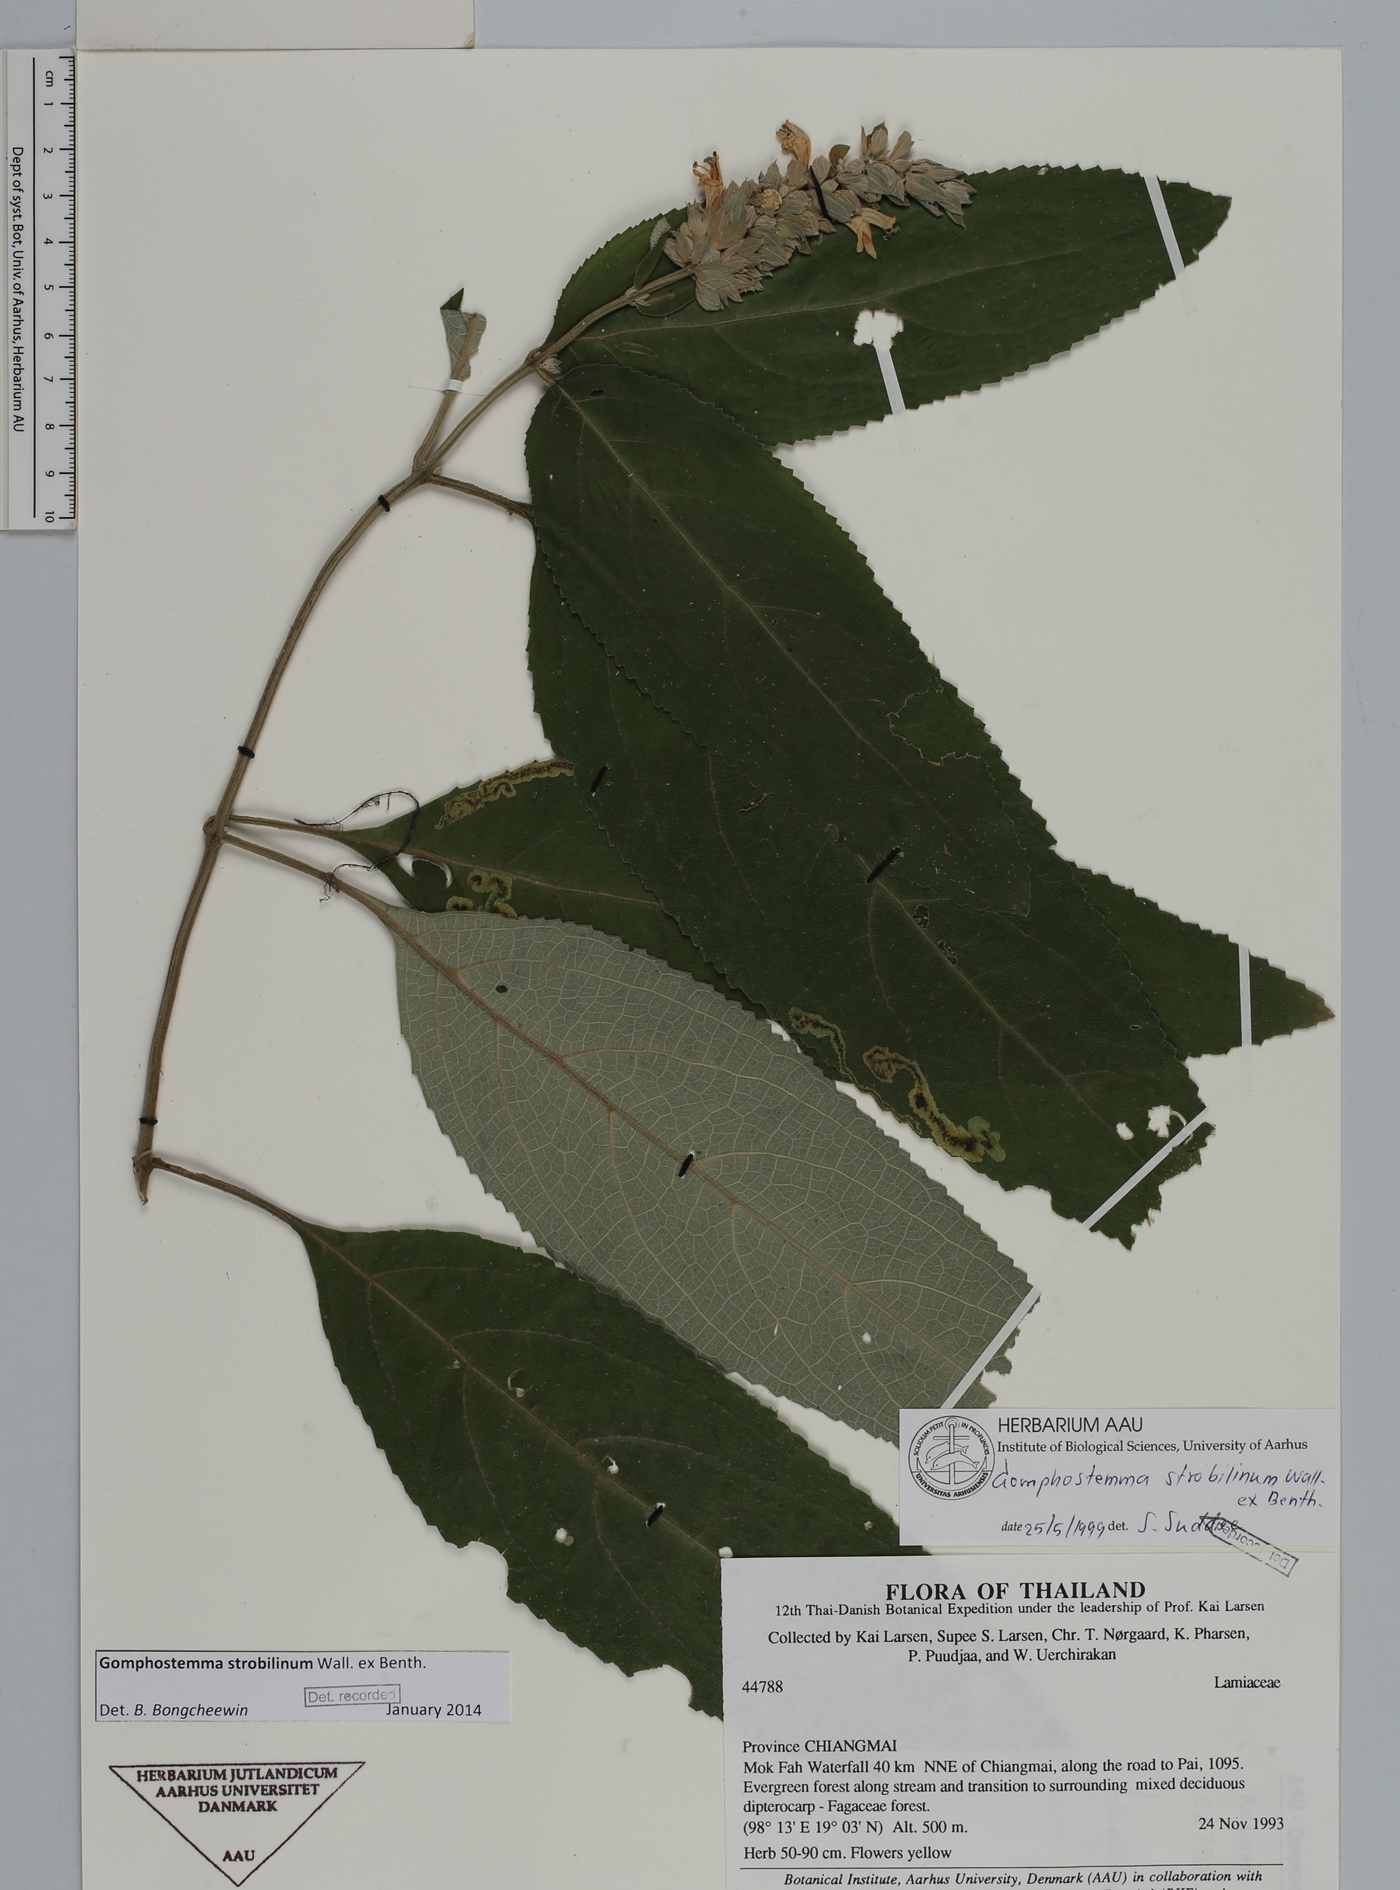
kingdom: Plantae
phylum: Tracheophyta
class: Magnoliopsida
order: Lamiales
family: Lamiaceae
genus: Gomphostemma
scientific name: Gomphostemma strobilinum
